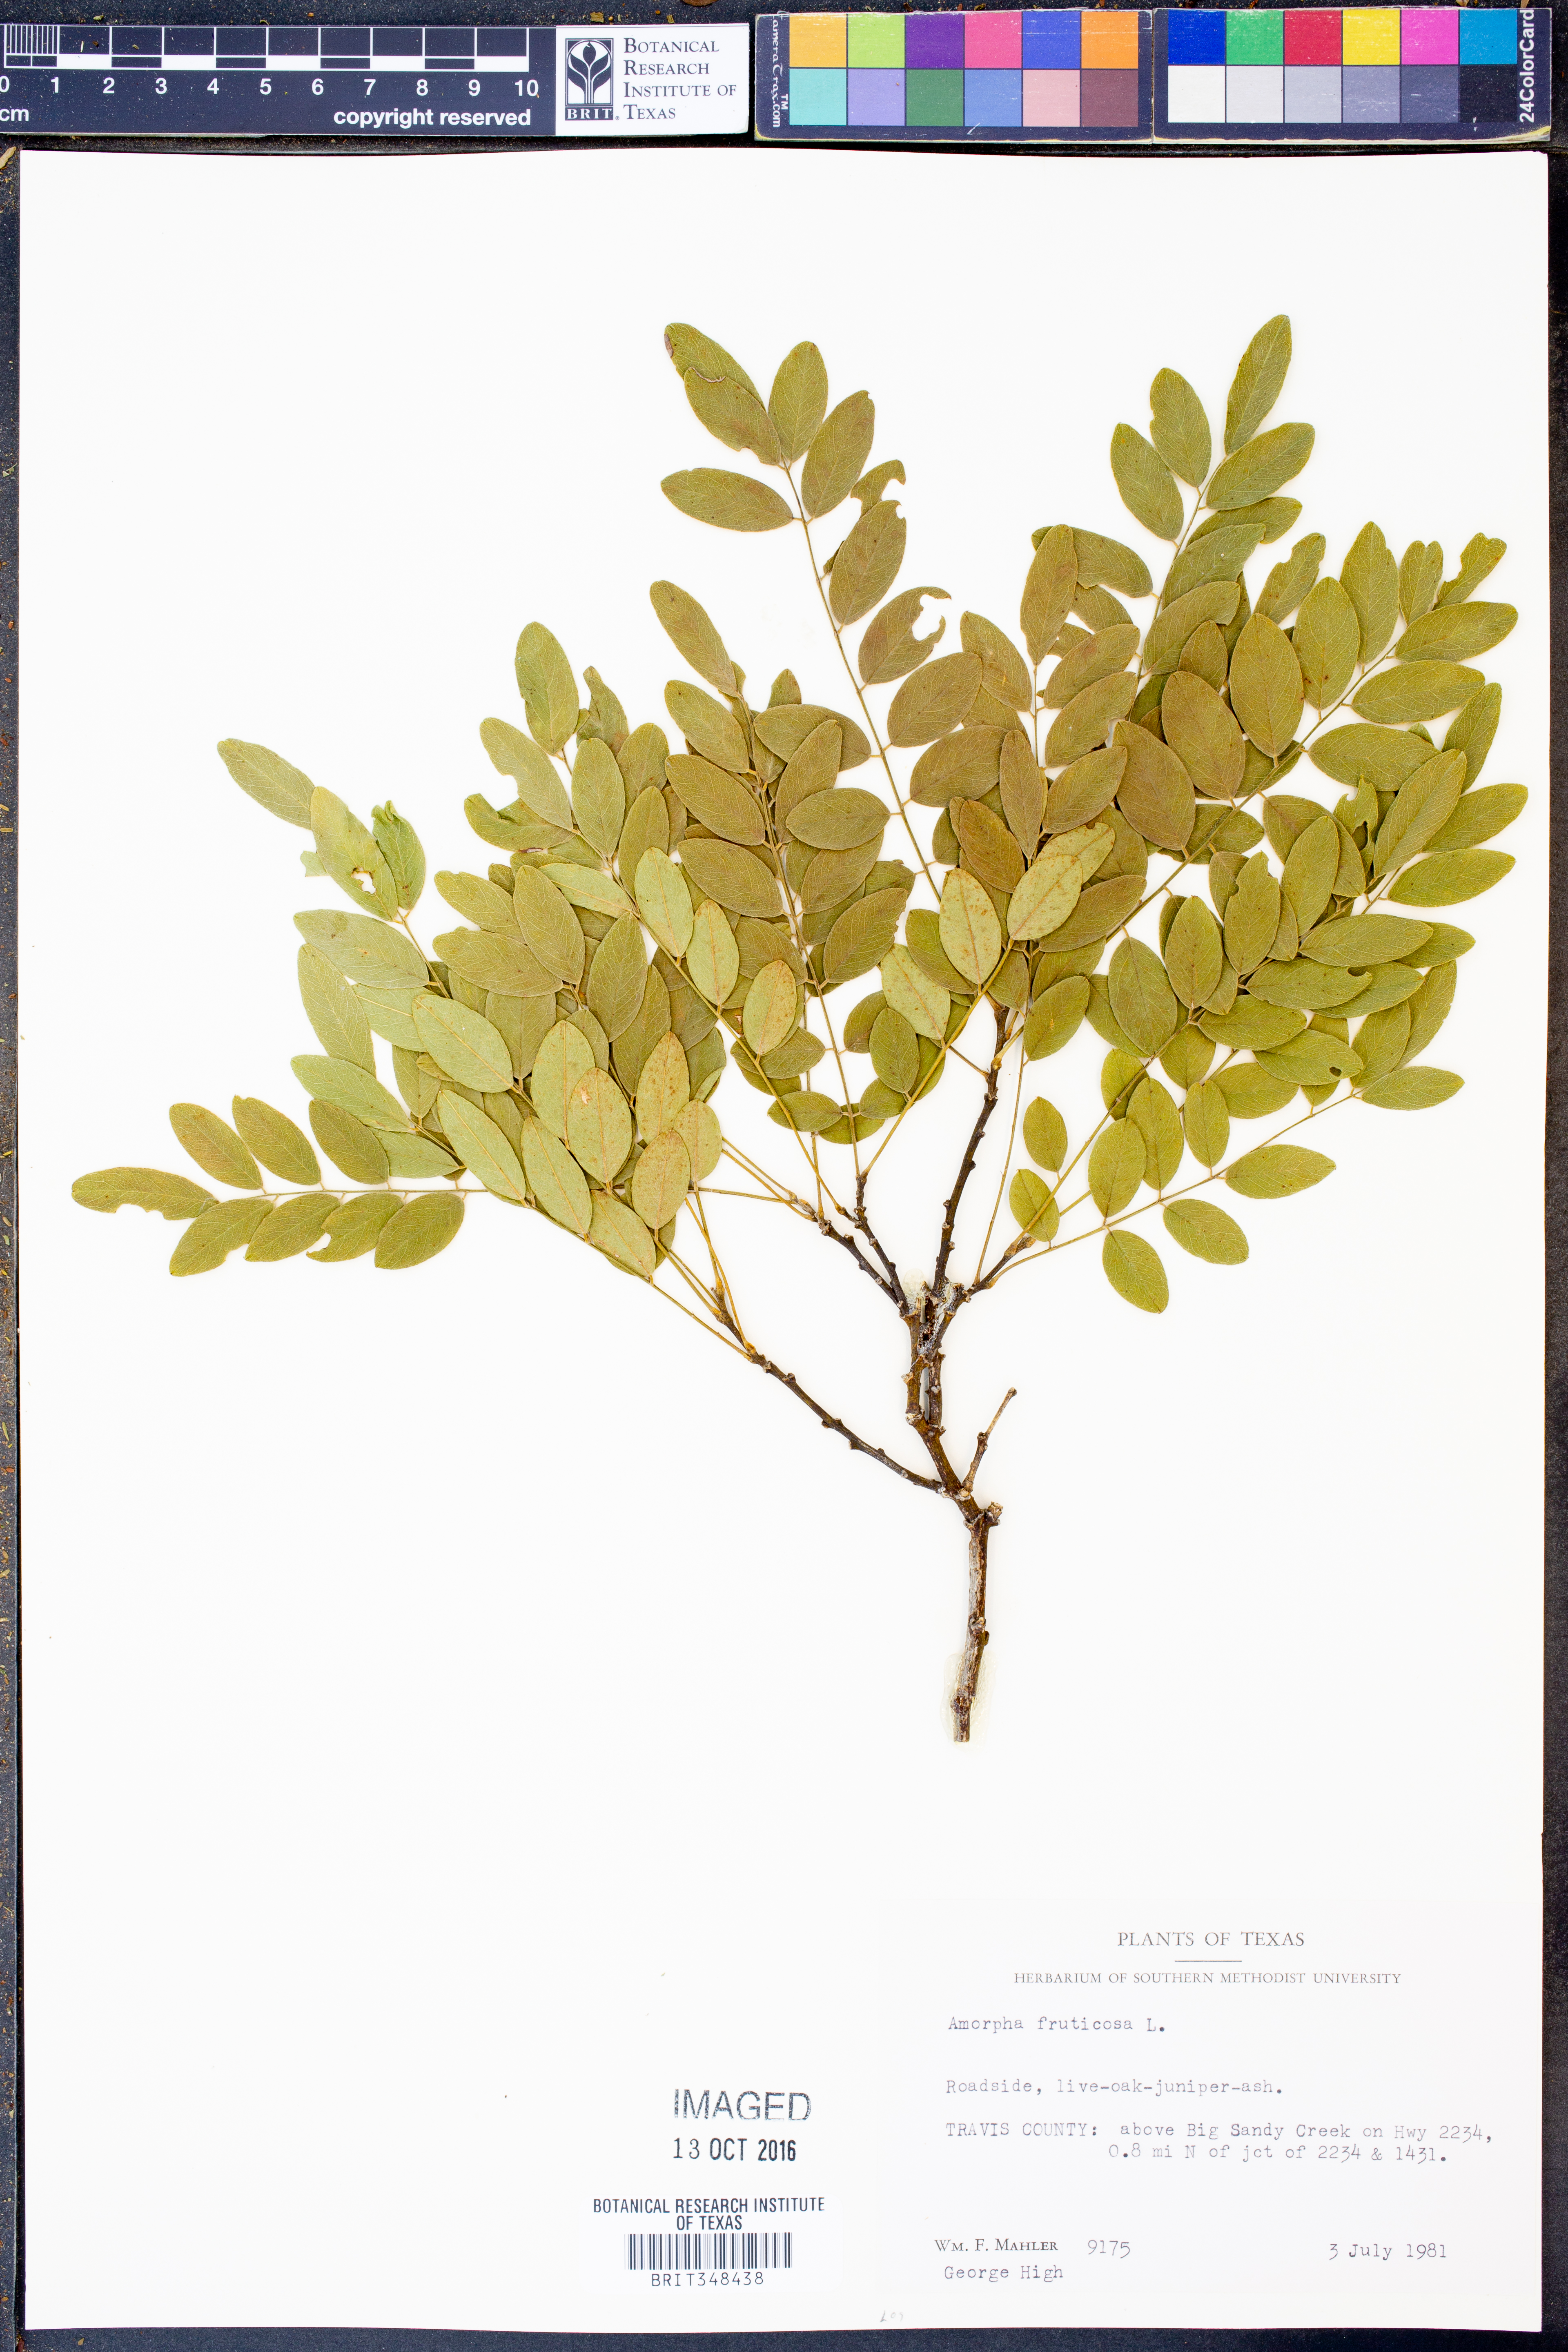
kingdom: Plantae
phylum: Tracheophyta
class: Magnoliopsida
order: Fabales
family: Fabaceae
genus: Amorpha
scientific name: Amorpha fruticosa
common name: False indigo
